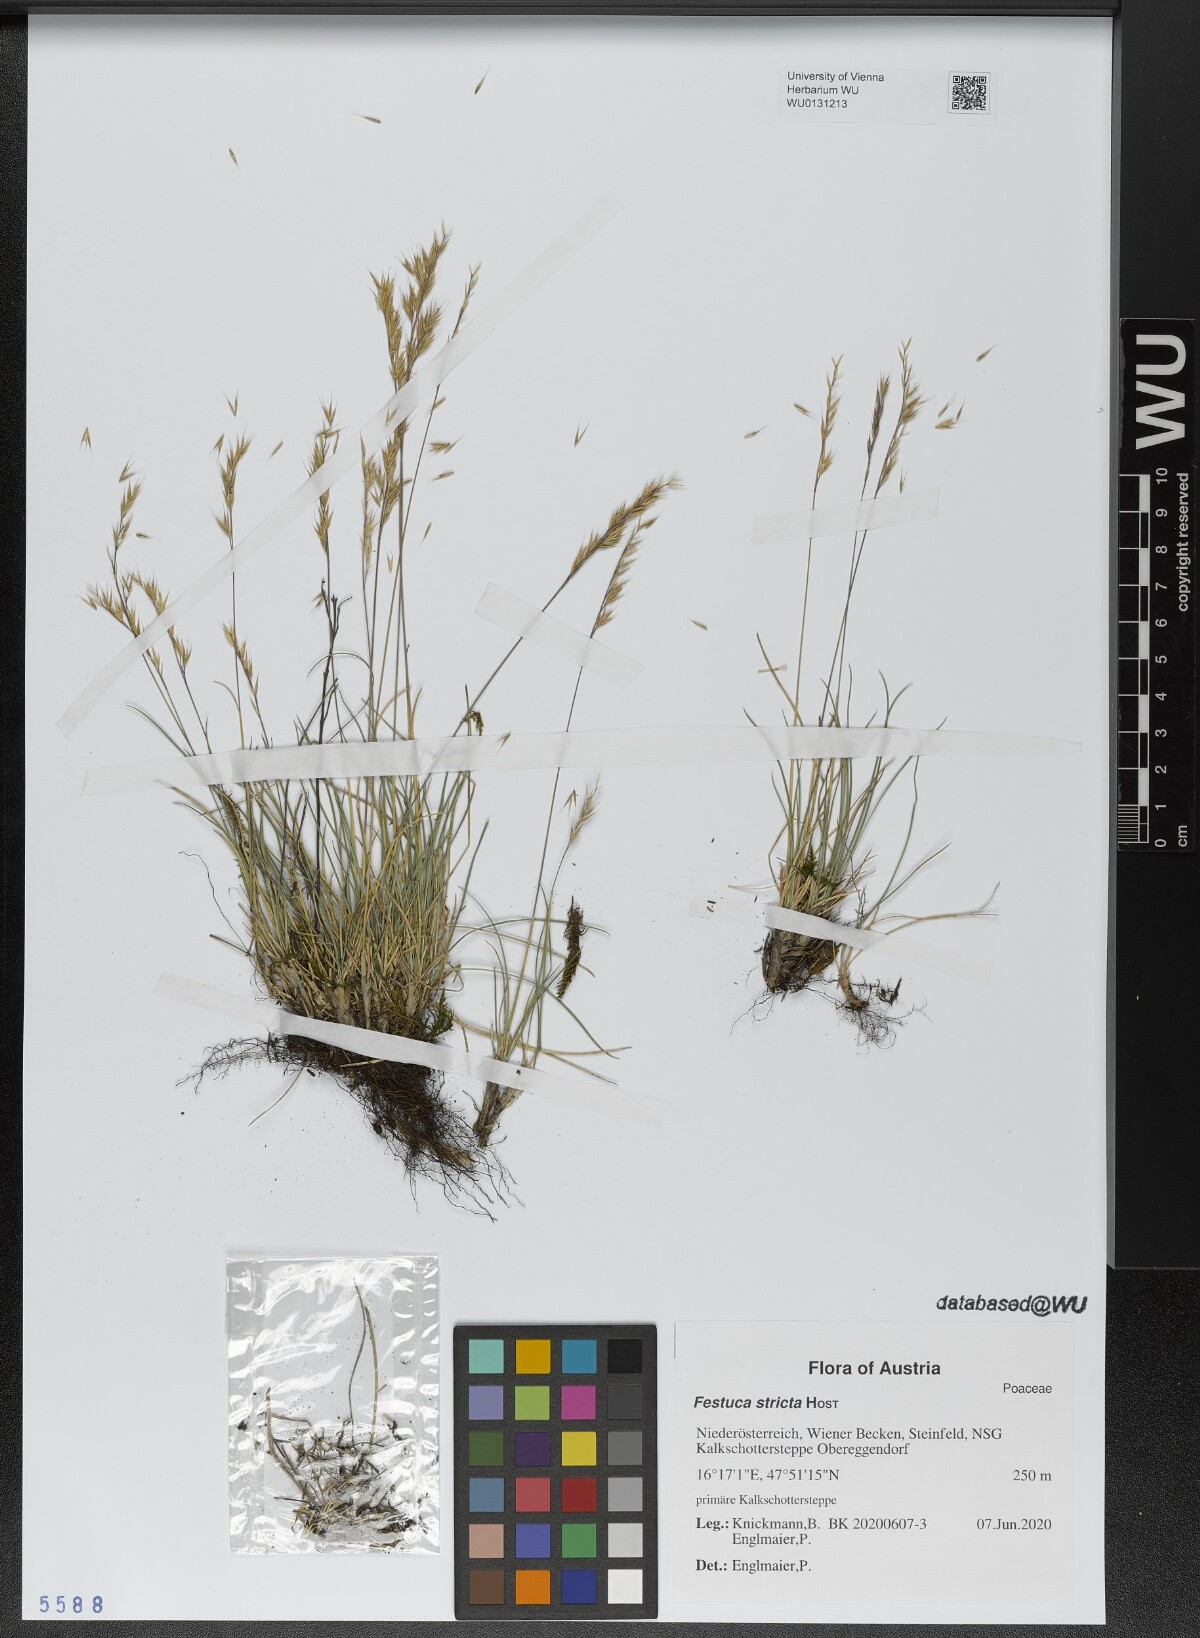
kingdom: Plantae
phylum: Tracheophyta
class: Liliopsida
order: Poales
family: Poaceae
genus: Festuca
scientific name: Festuca stricta
